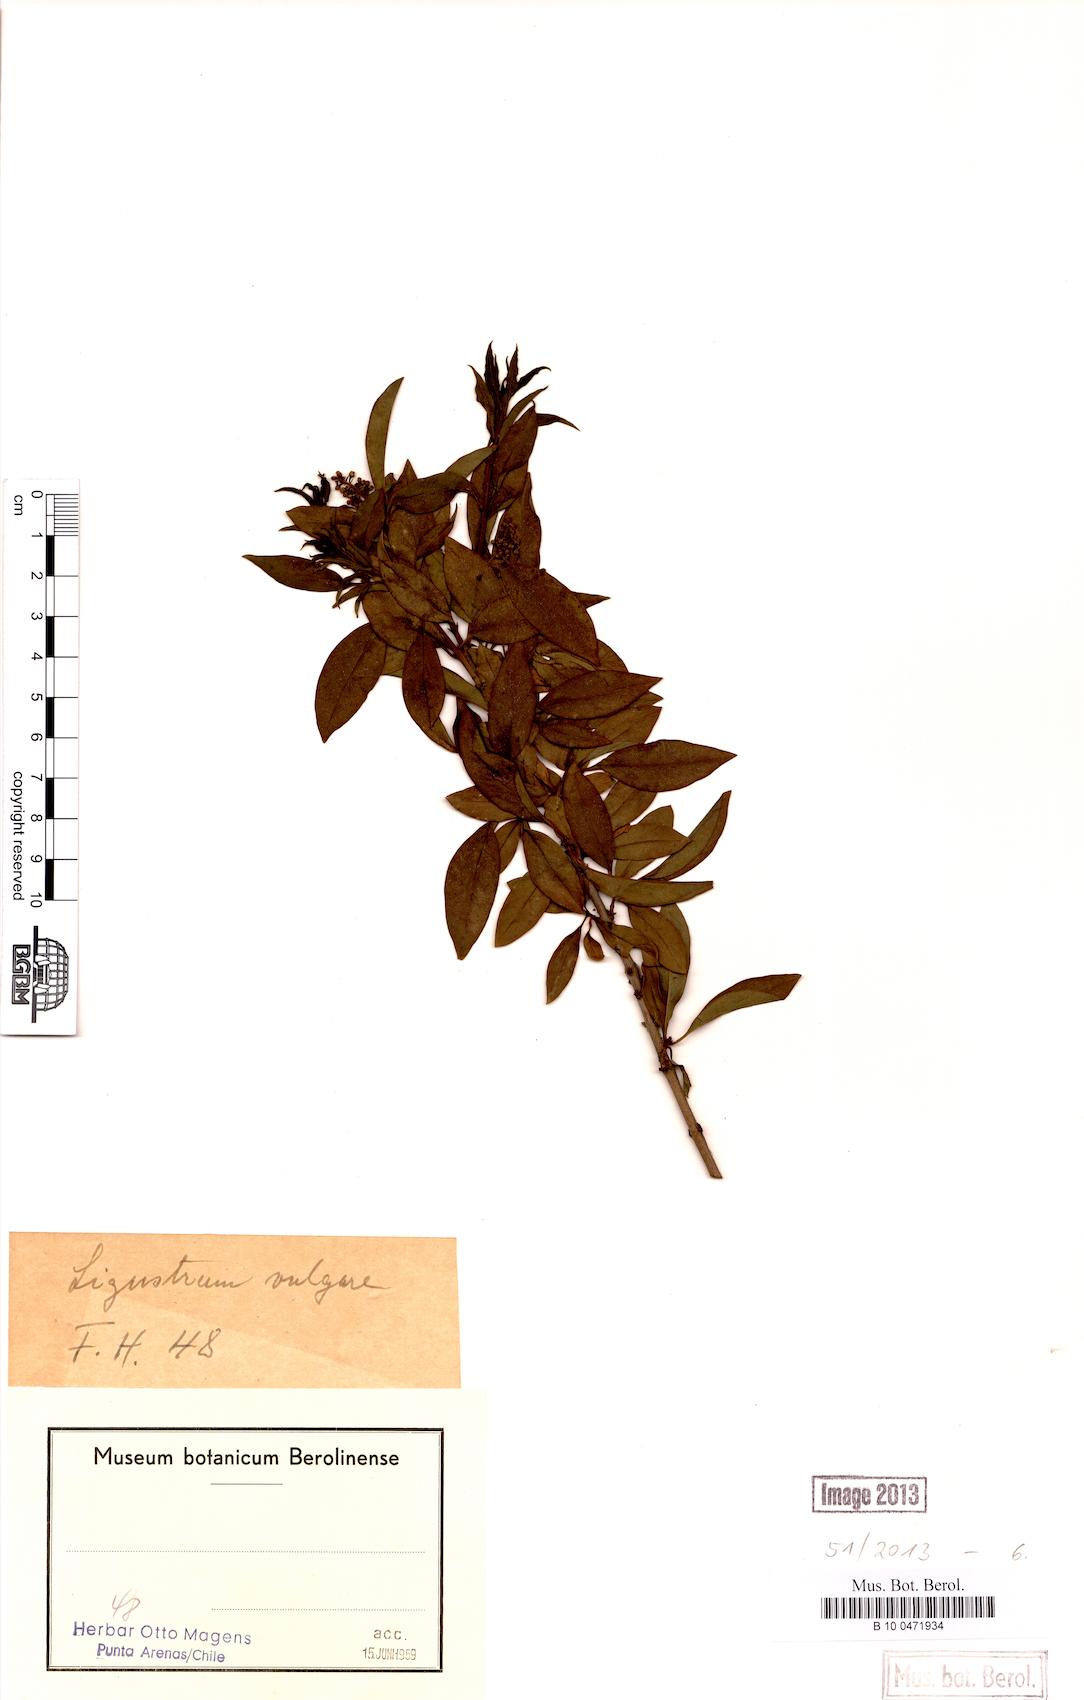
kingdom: Plantae
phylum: Tracheophyta
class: Magnoliopsida
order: Lamiales
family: Oleaceae
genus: Ligustrum
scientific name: Ligustrum vulgare
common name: Wild privet
